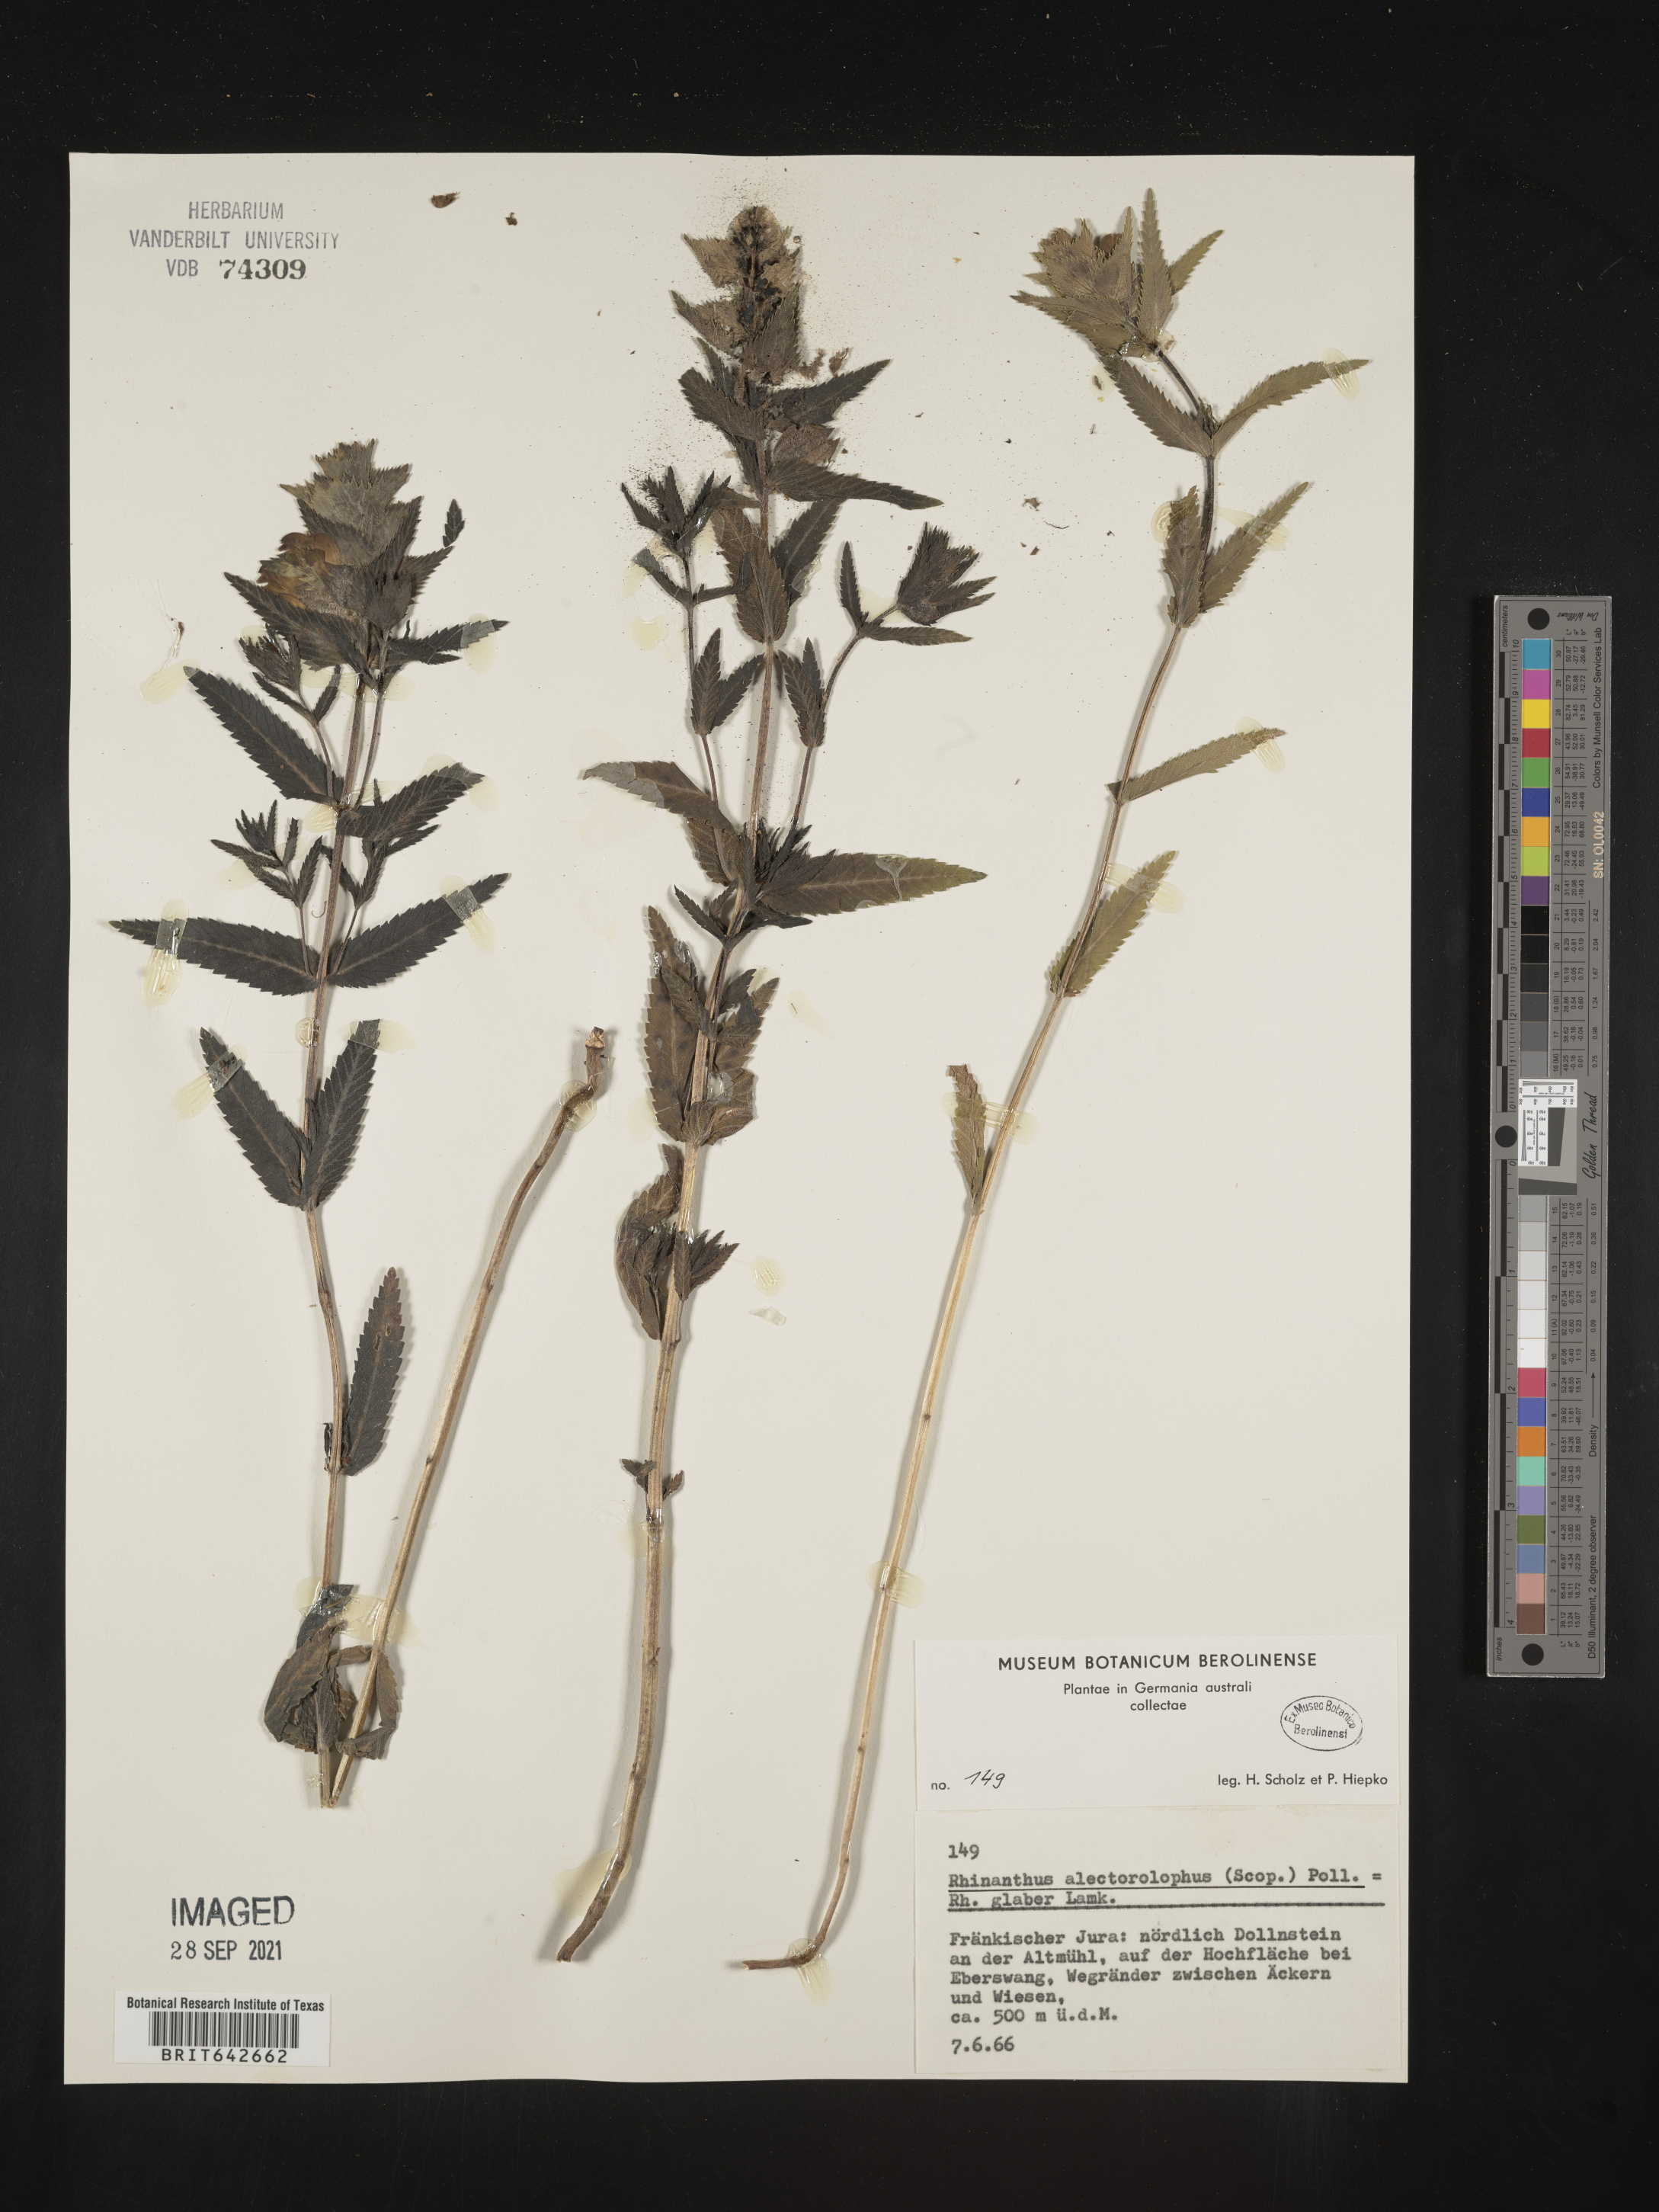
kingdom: Plantae
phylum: Tracheophyta
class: Magnoliopsida
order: Lamiales
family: Orobanchaceae
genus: Rhinanthus
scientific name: Rhinanthus
